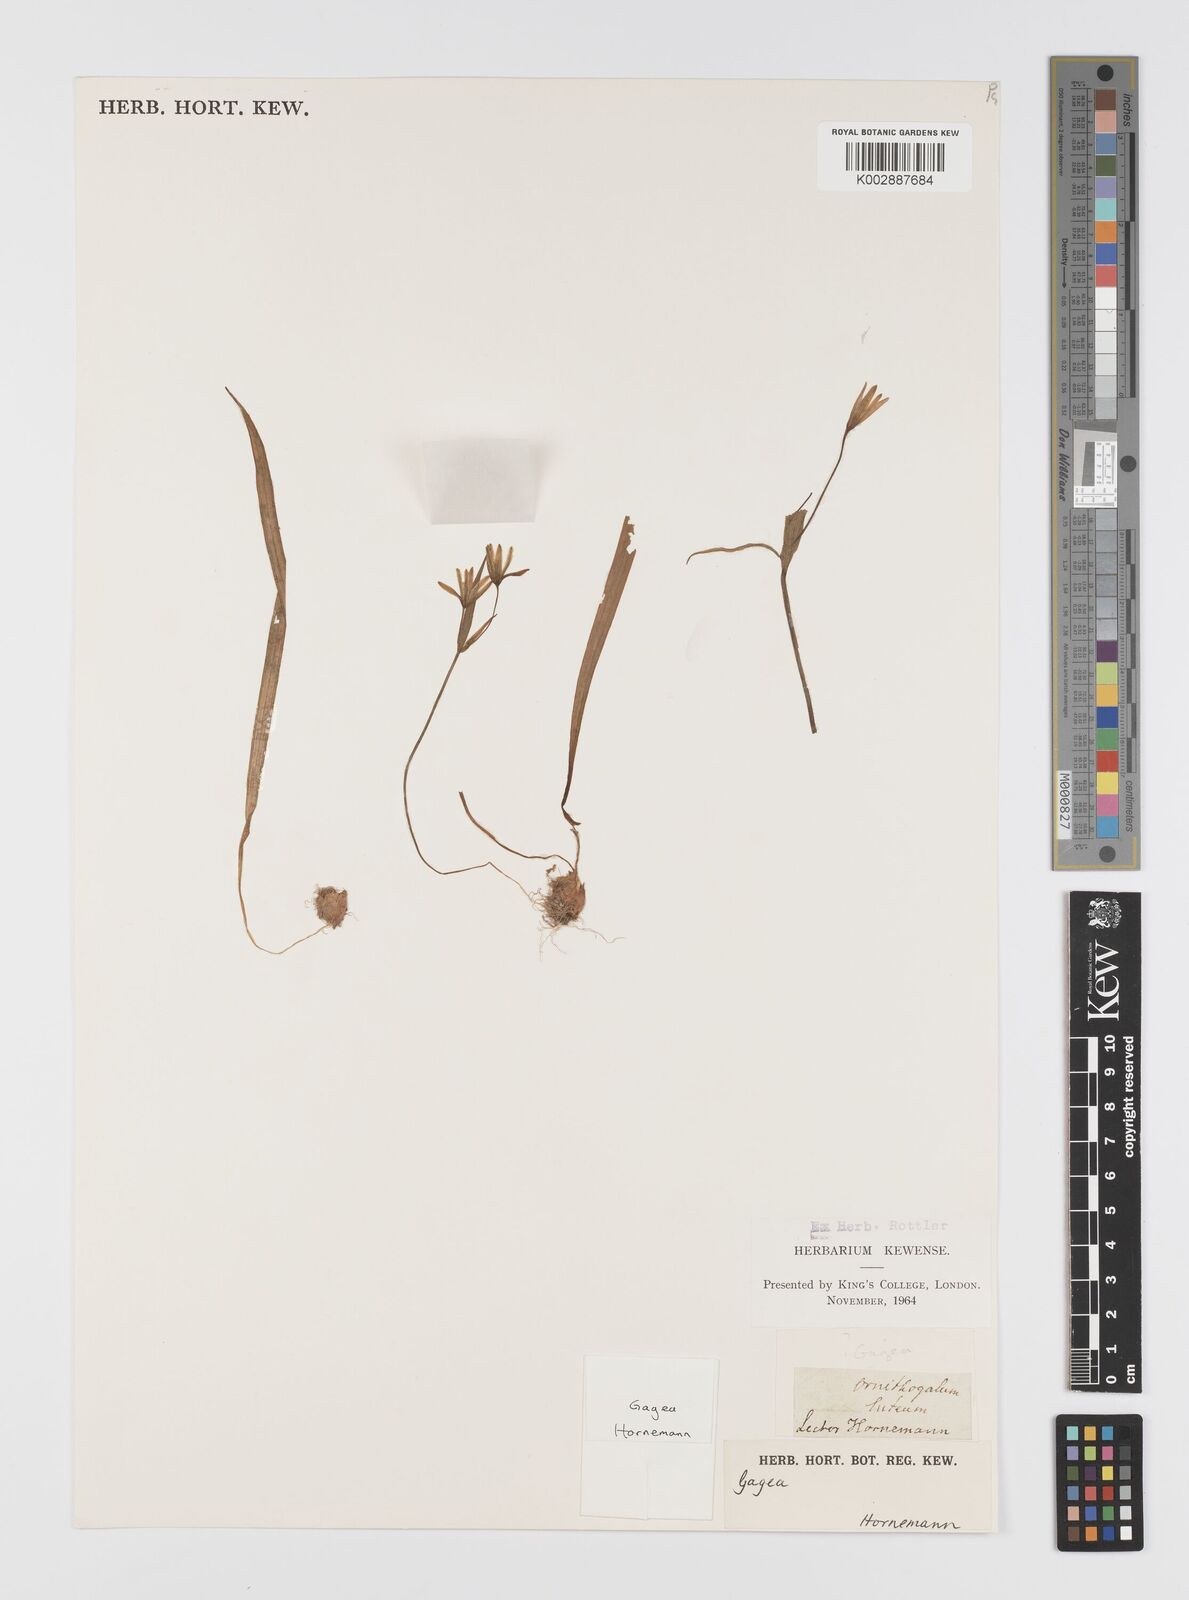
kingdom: Plantae
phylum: Tracheophyta
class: Liliopsida
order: Liliales
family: Liliaceae
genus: Gagea
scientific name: Gagea
